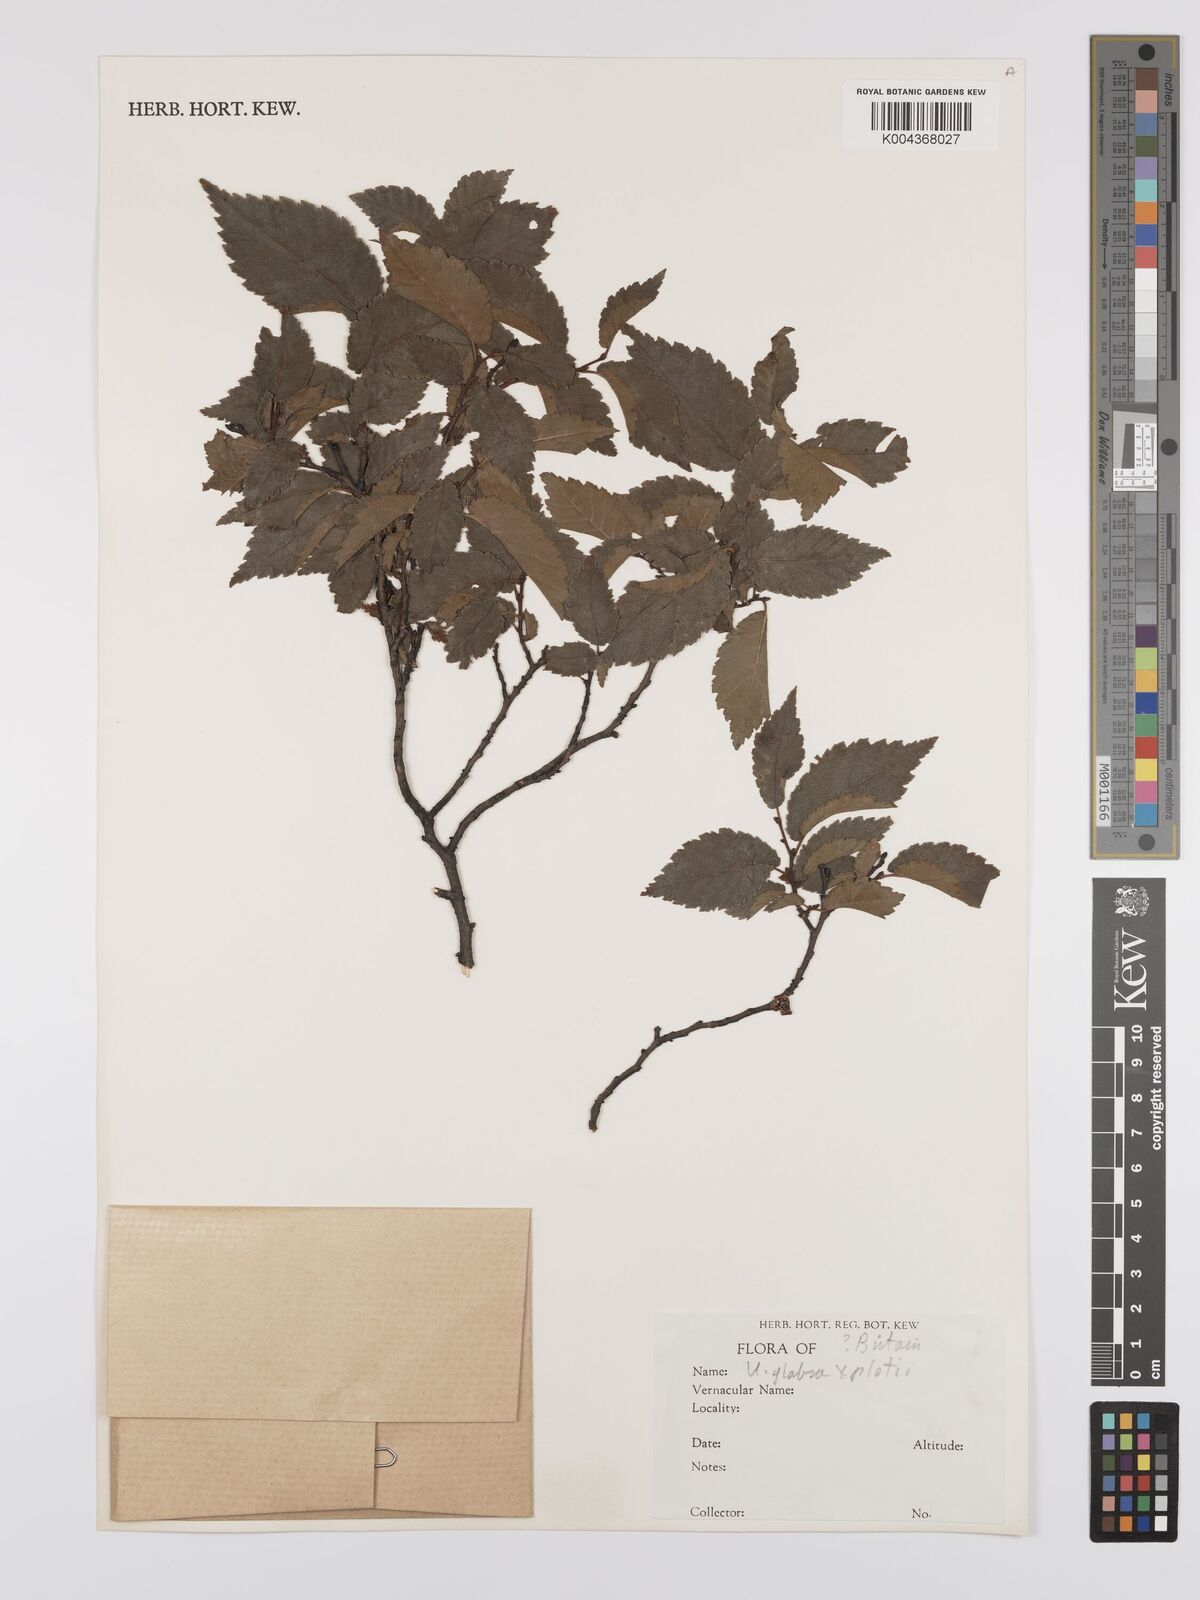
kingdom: Plantae
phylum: Tracheophyta
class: Magnoliopsida
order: Rosales
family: Ulmaceae
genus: Ulmus
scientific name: Ulmus
